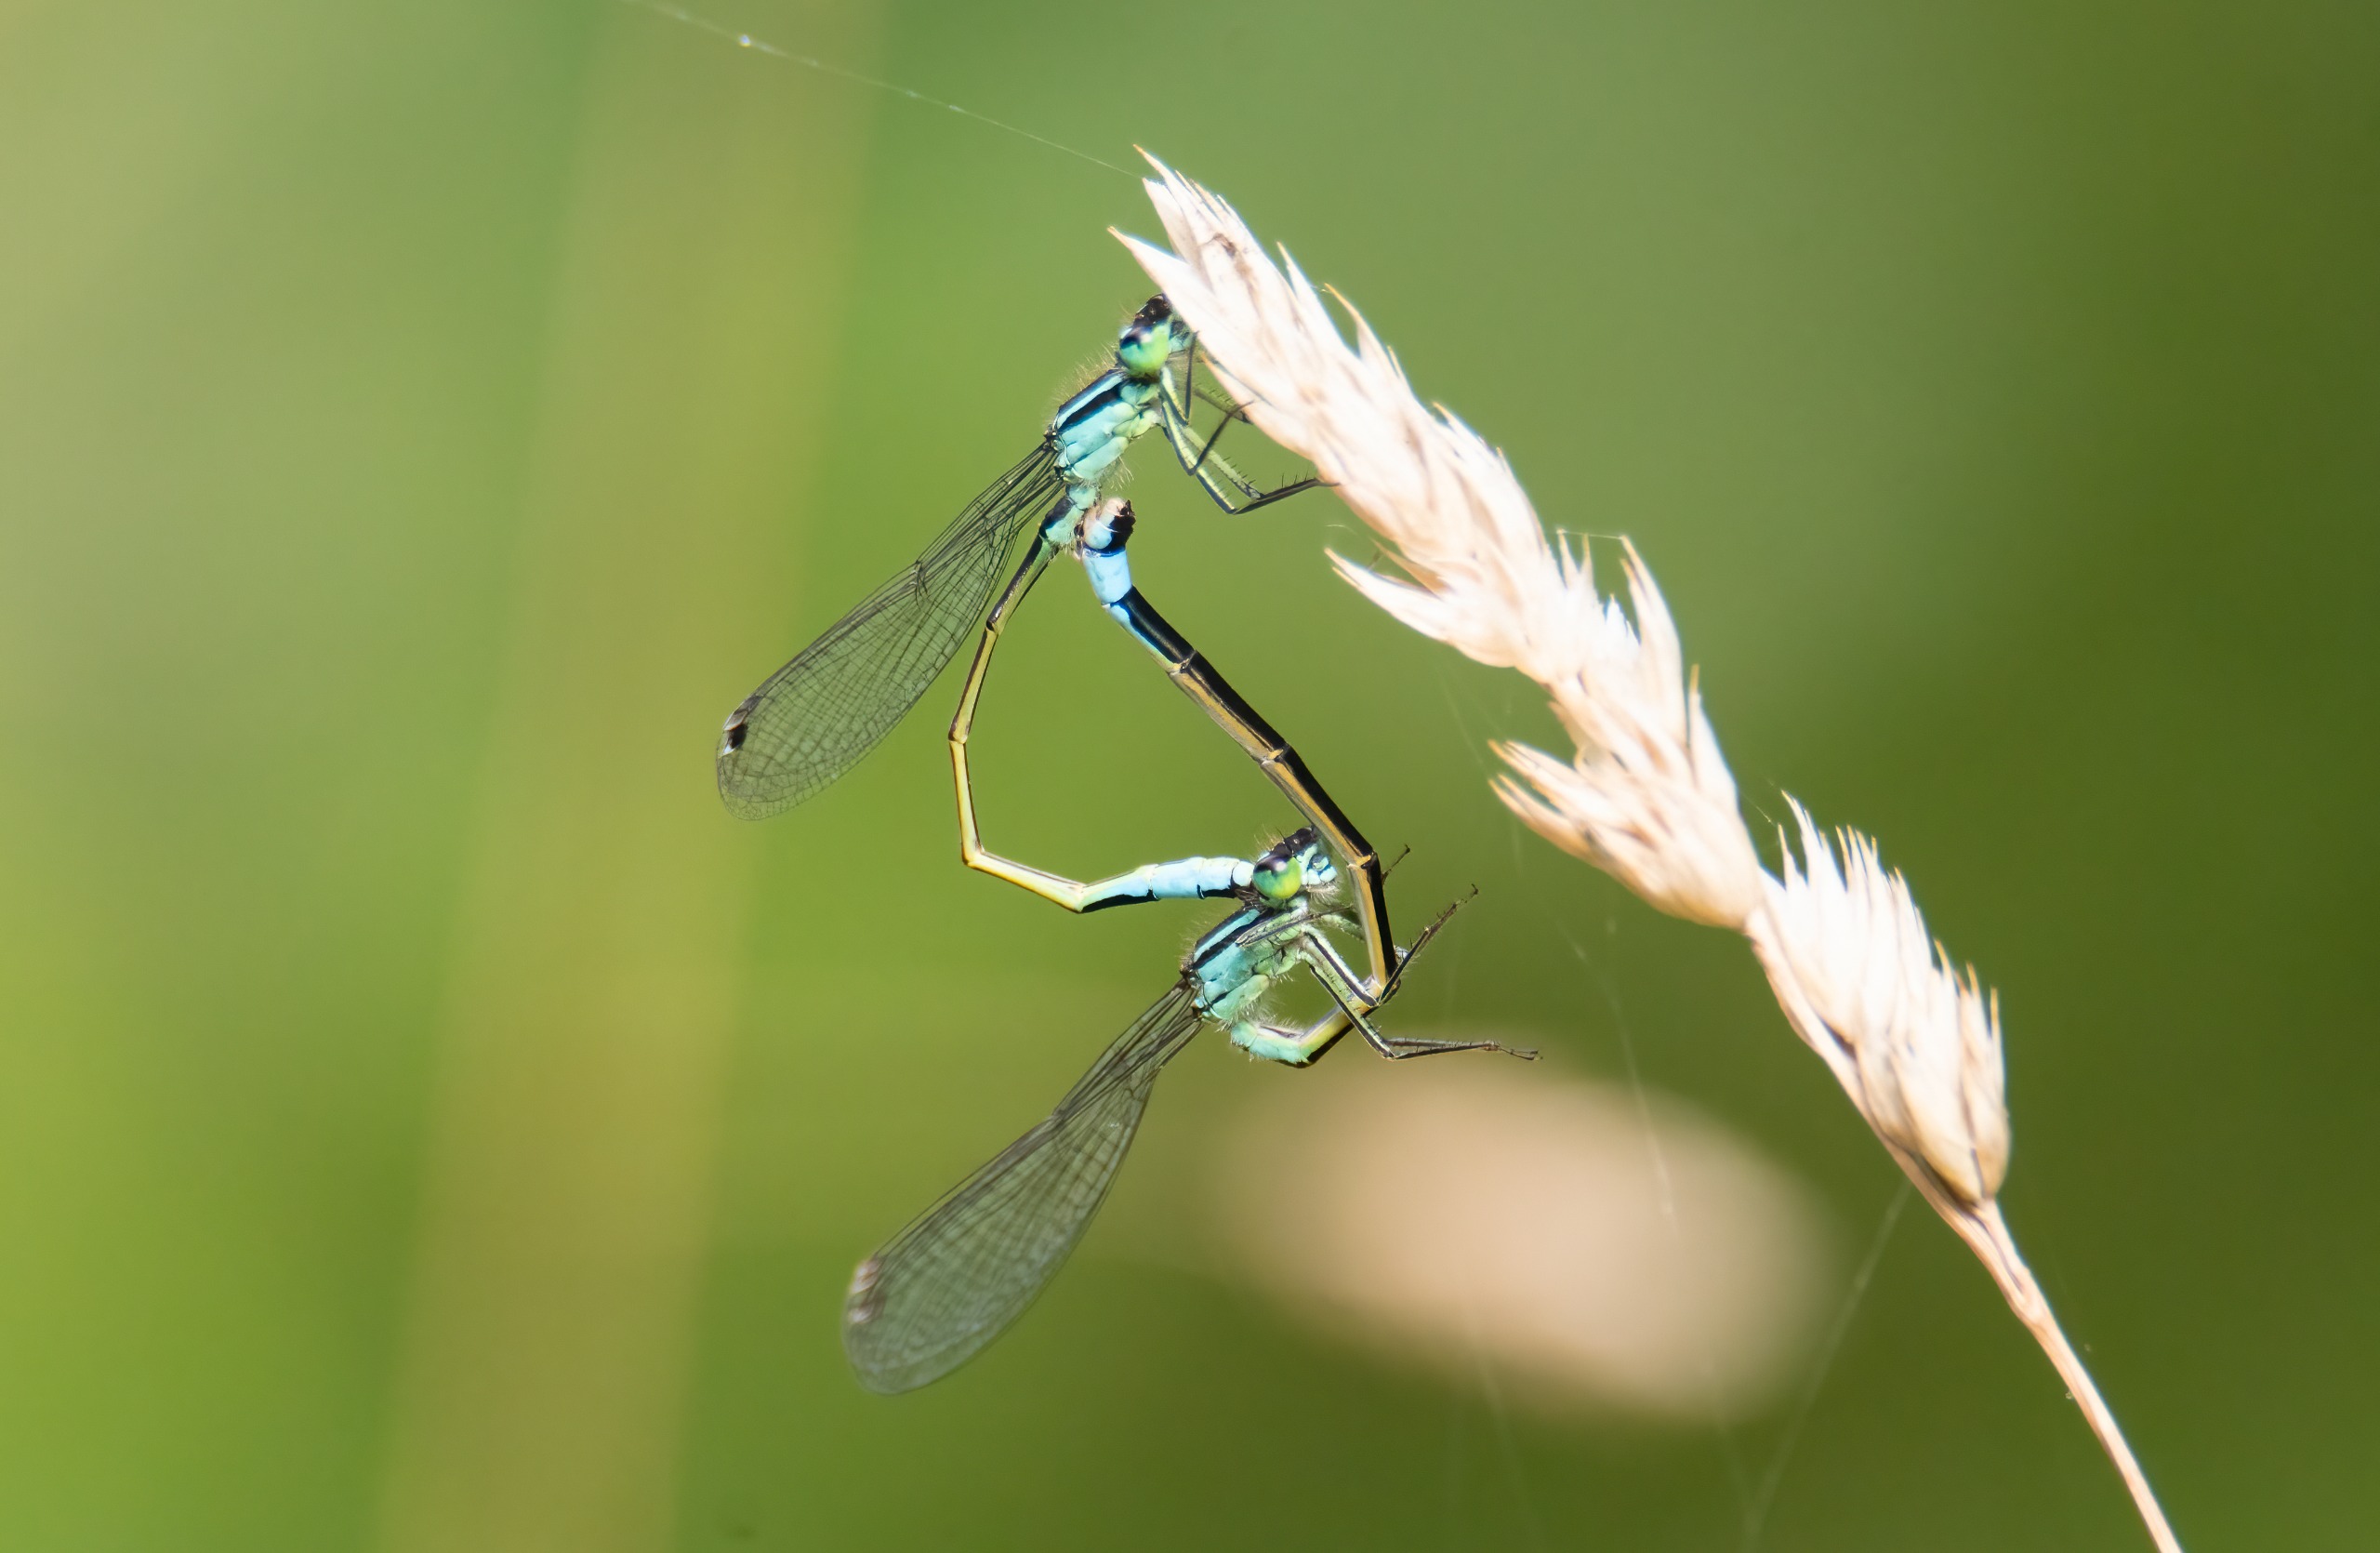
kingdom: Animalia
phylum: Arthropoda
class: Insecta
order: Odonata
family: Coenagrionidae
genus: Ischnura
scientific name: Ischnura elegans
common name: Stor farvevandnymfe
